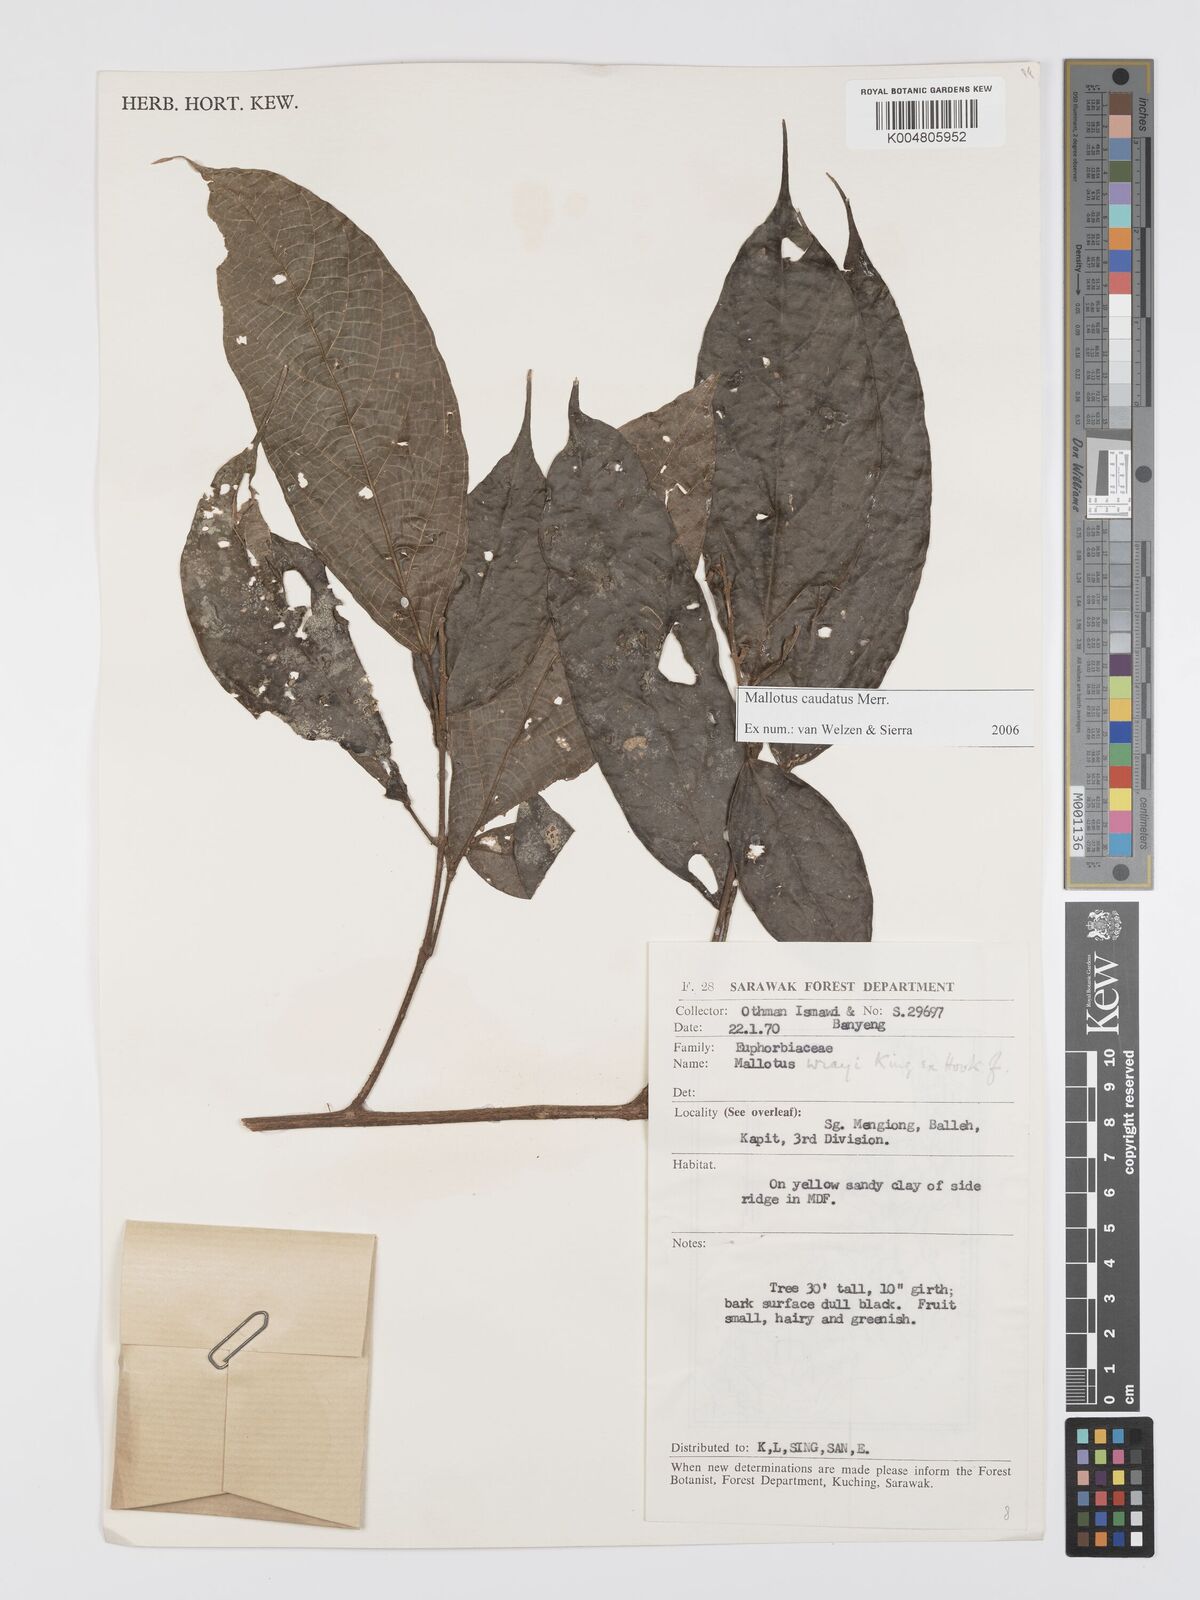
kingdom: Plantae
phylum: Tracheophyta
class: Magnoliopsida
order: Malpighiales
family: Euphorbiaceae
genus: Mallotus
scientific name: Mallotus caudatus
